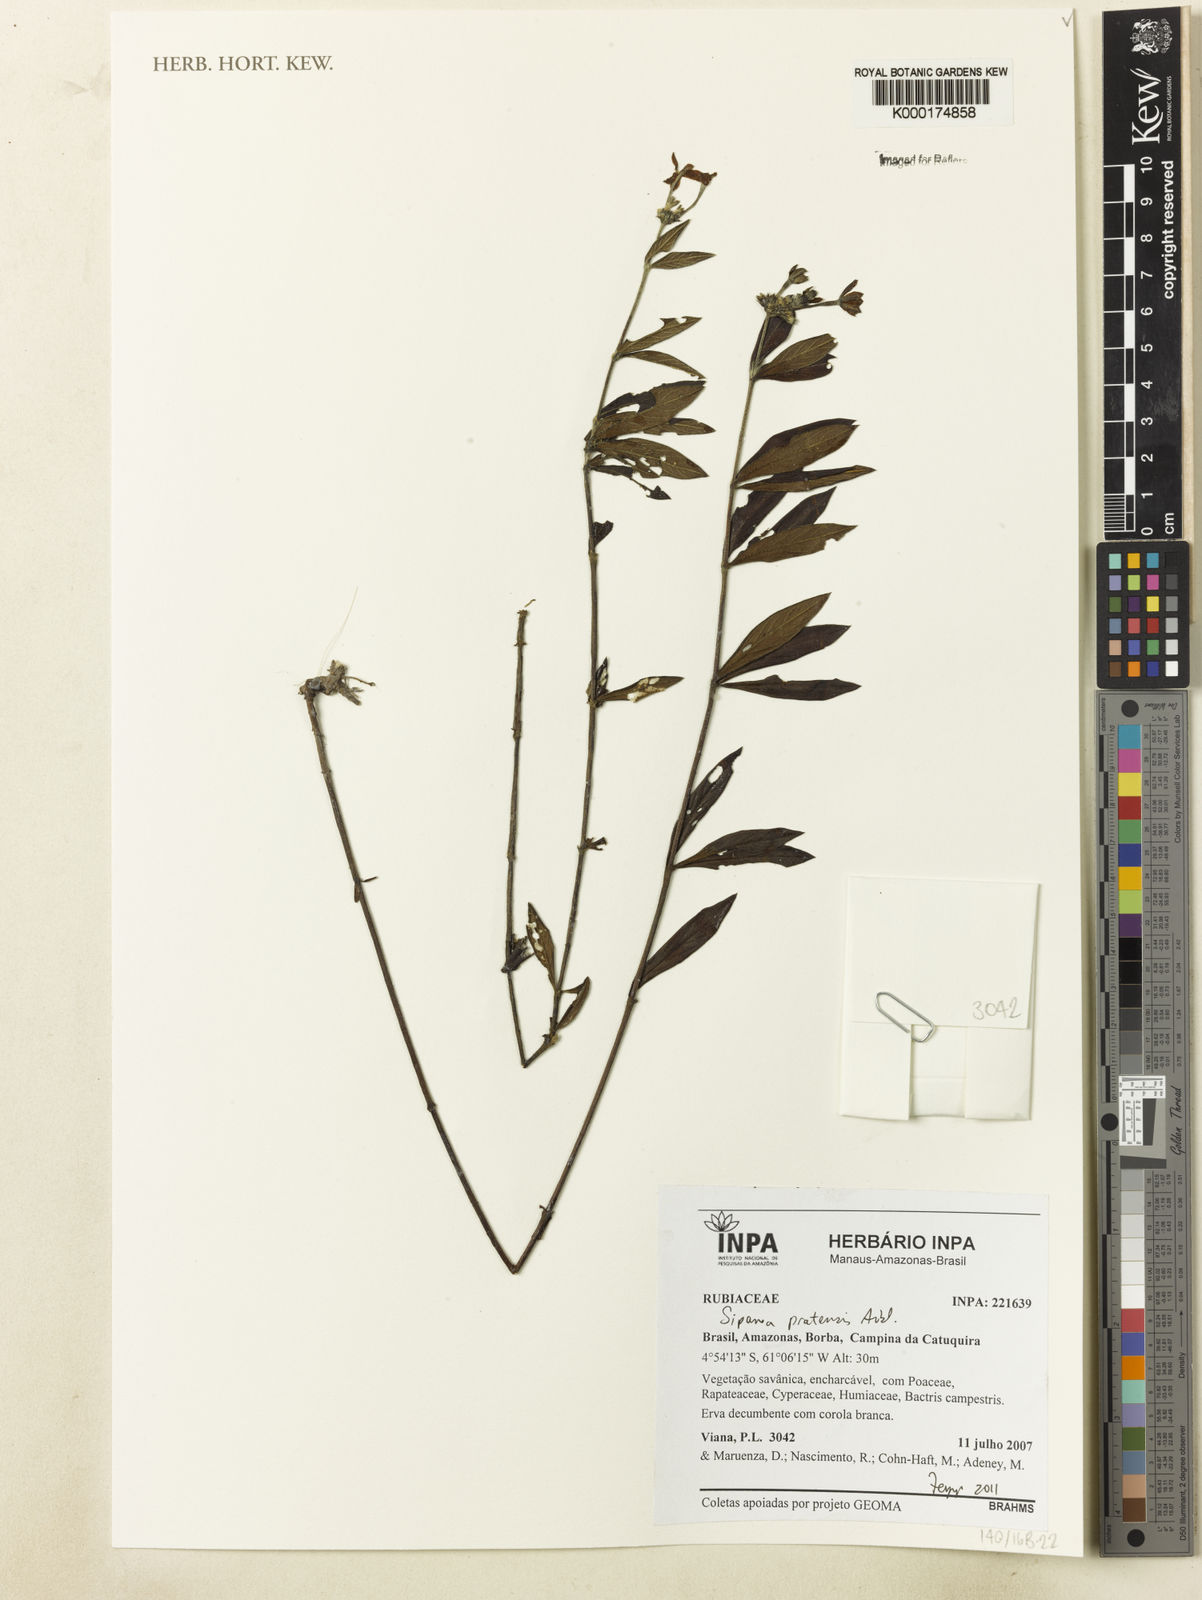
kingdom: Plantae
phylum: Tracheophyta
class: Magnoliopsida
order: Gentianales
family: Rubiaceae
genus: Sipanea
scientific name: Sipanea pratensis
